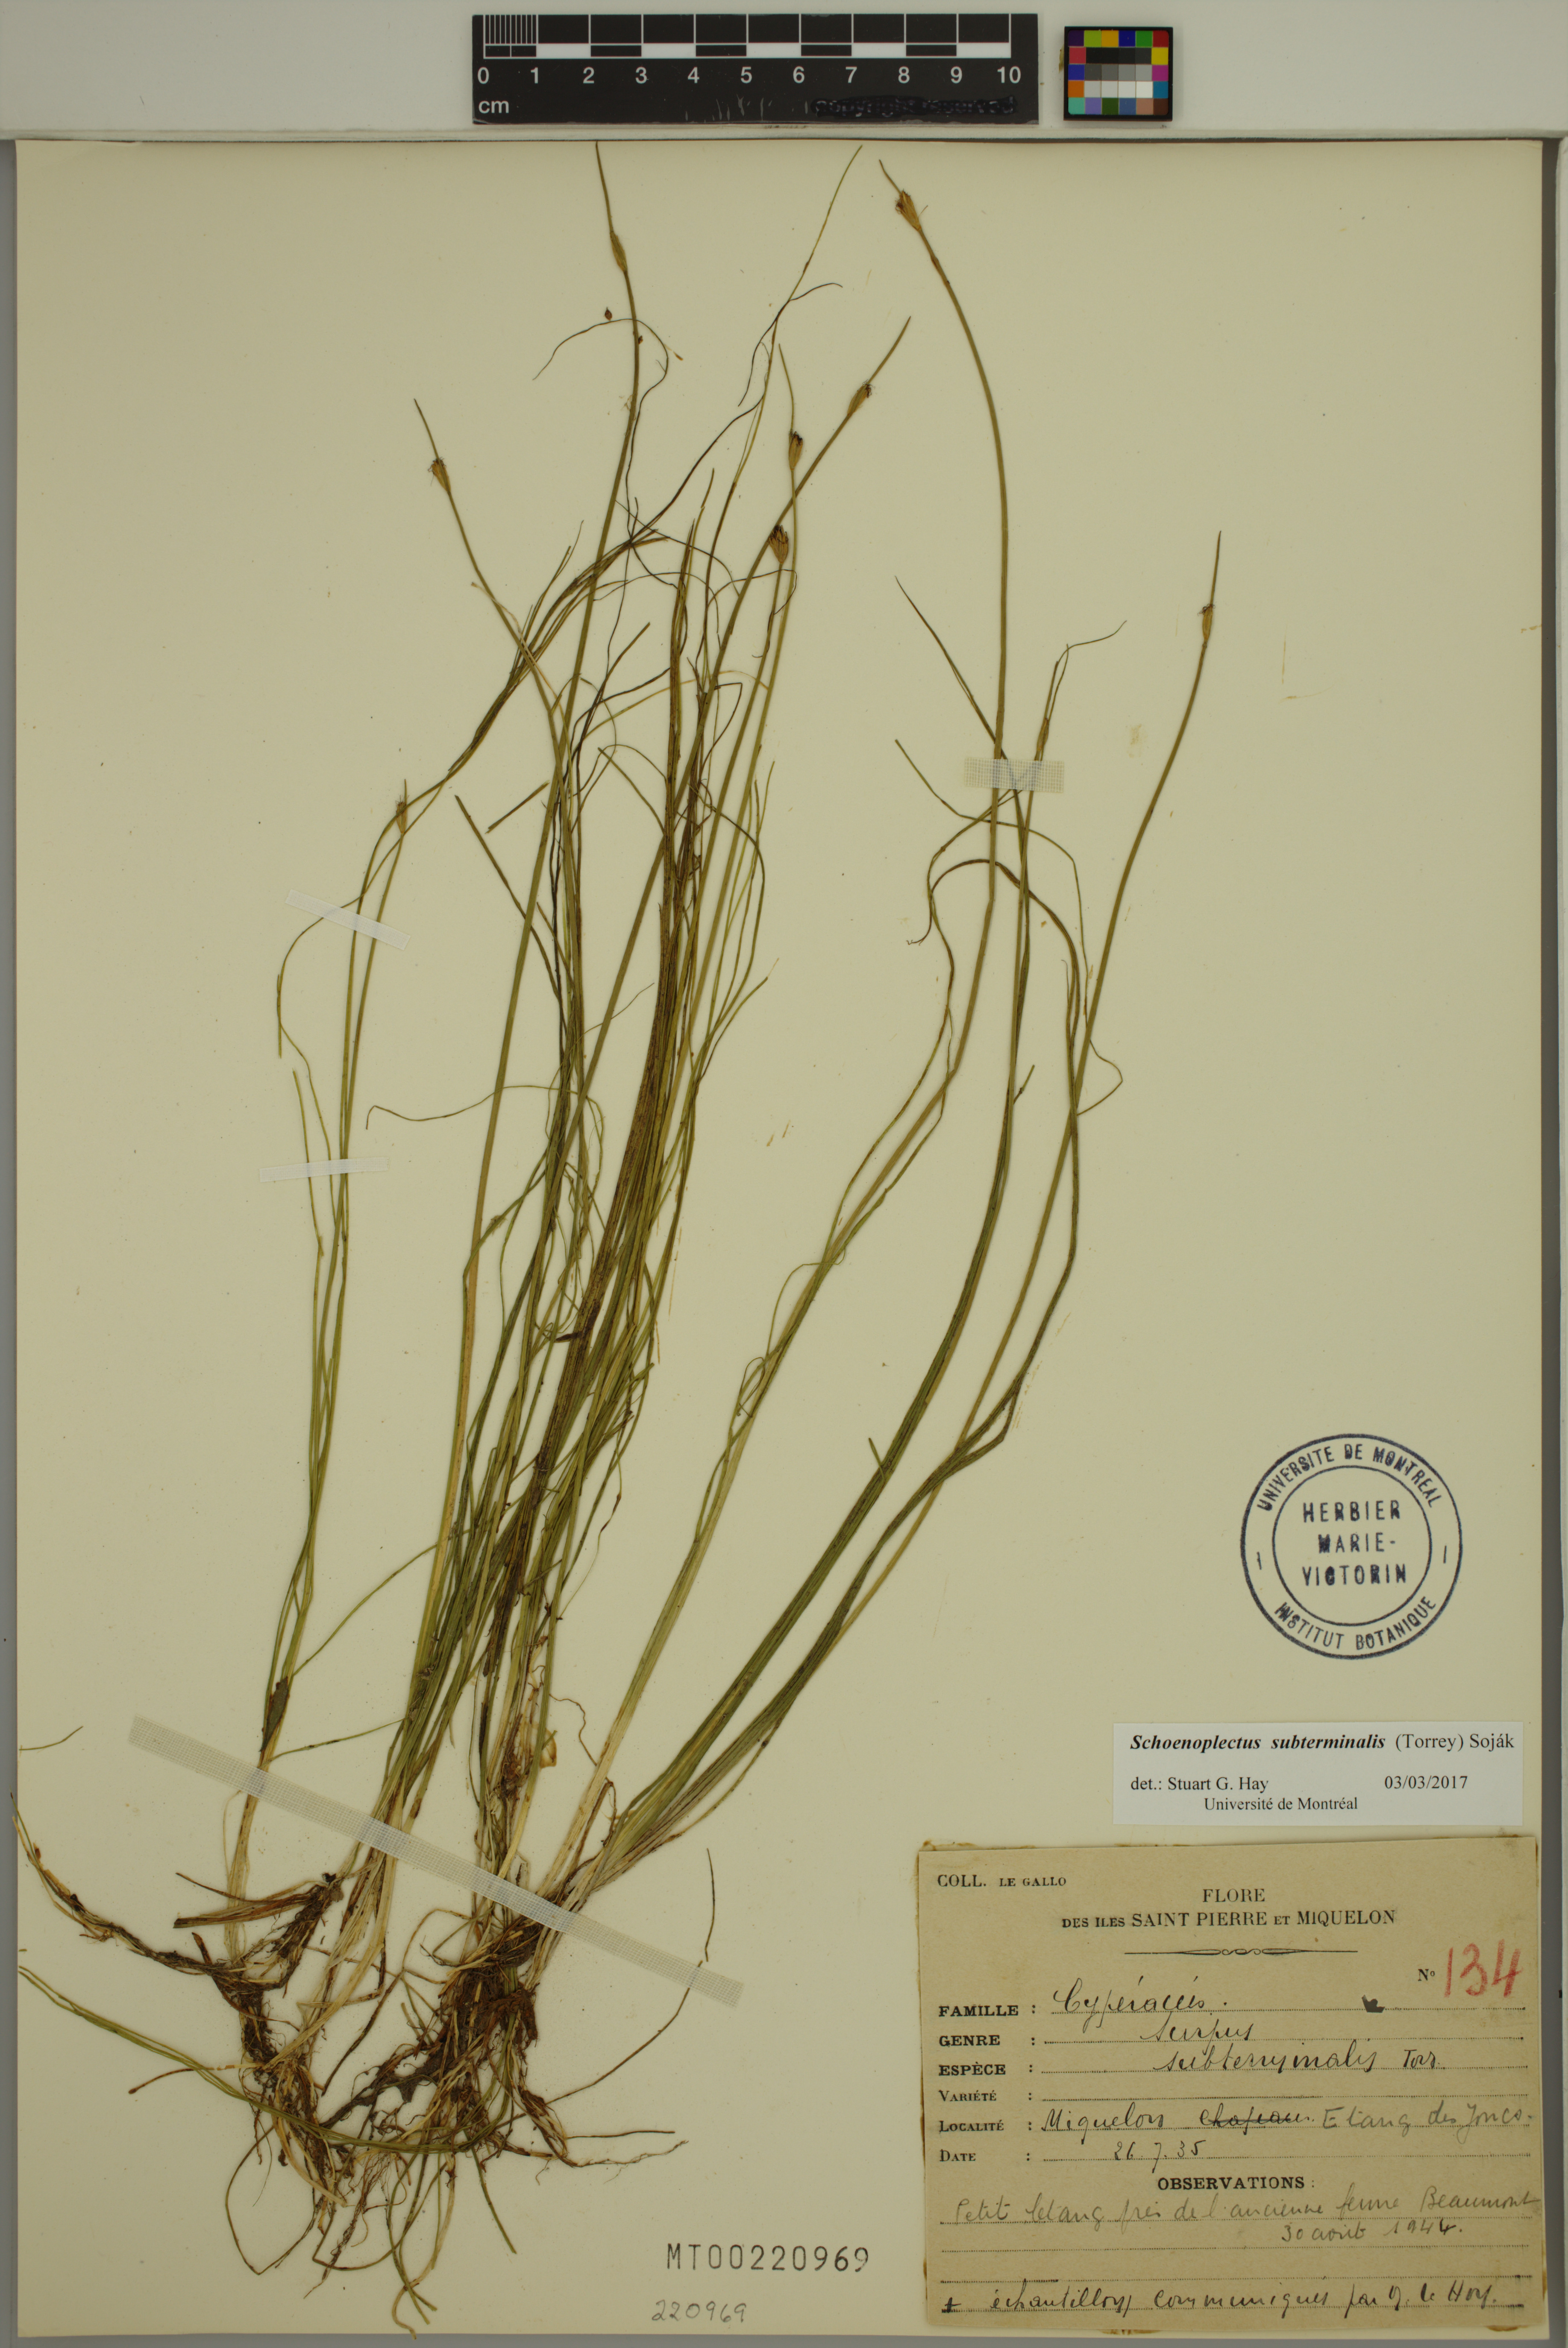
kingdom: Plantae
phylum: Tracheophyta
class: Liliopsida
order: Poales
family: Cyperaceae
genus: Schoenoplectus
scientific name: Schoenoplectus subterminalis
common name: Swaying bulrush
